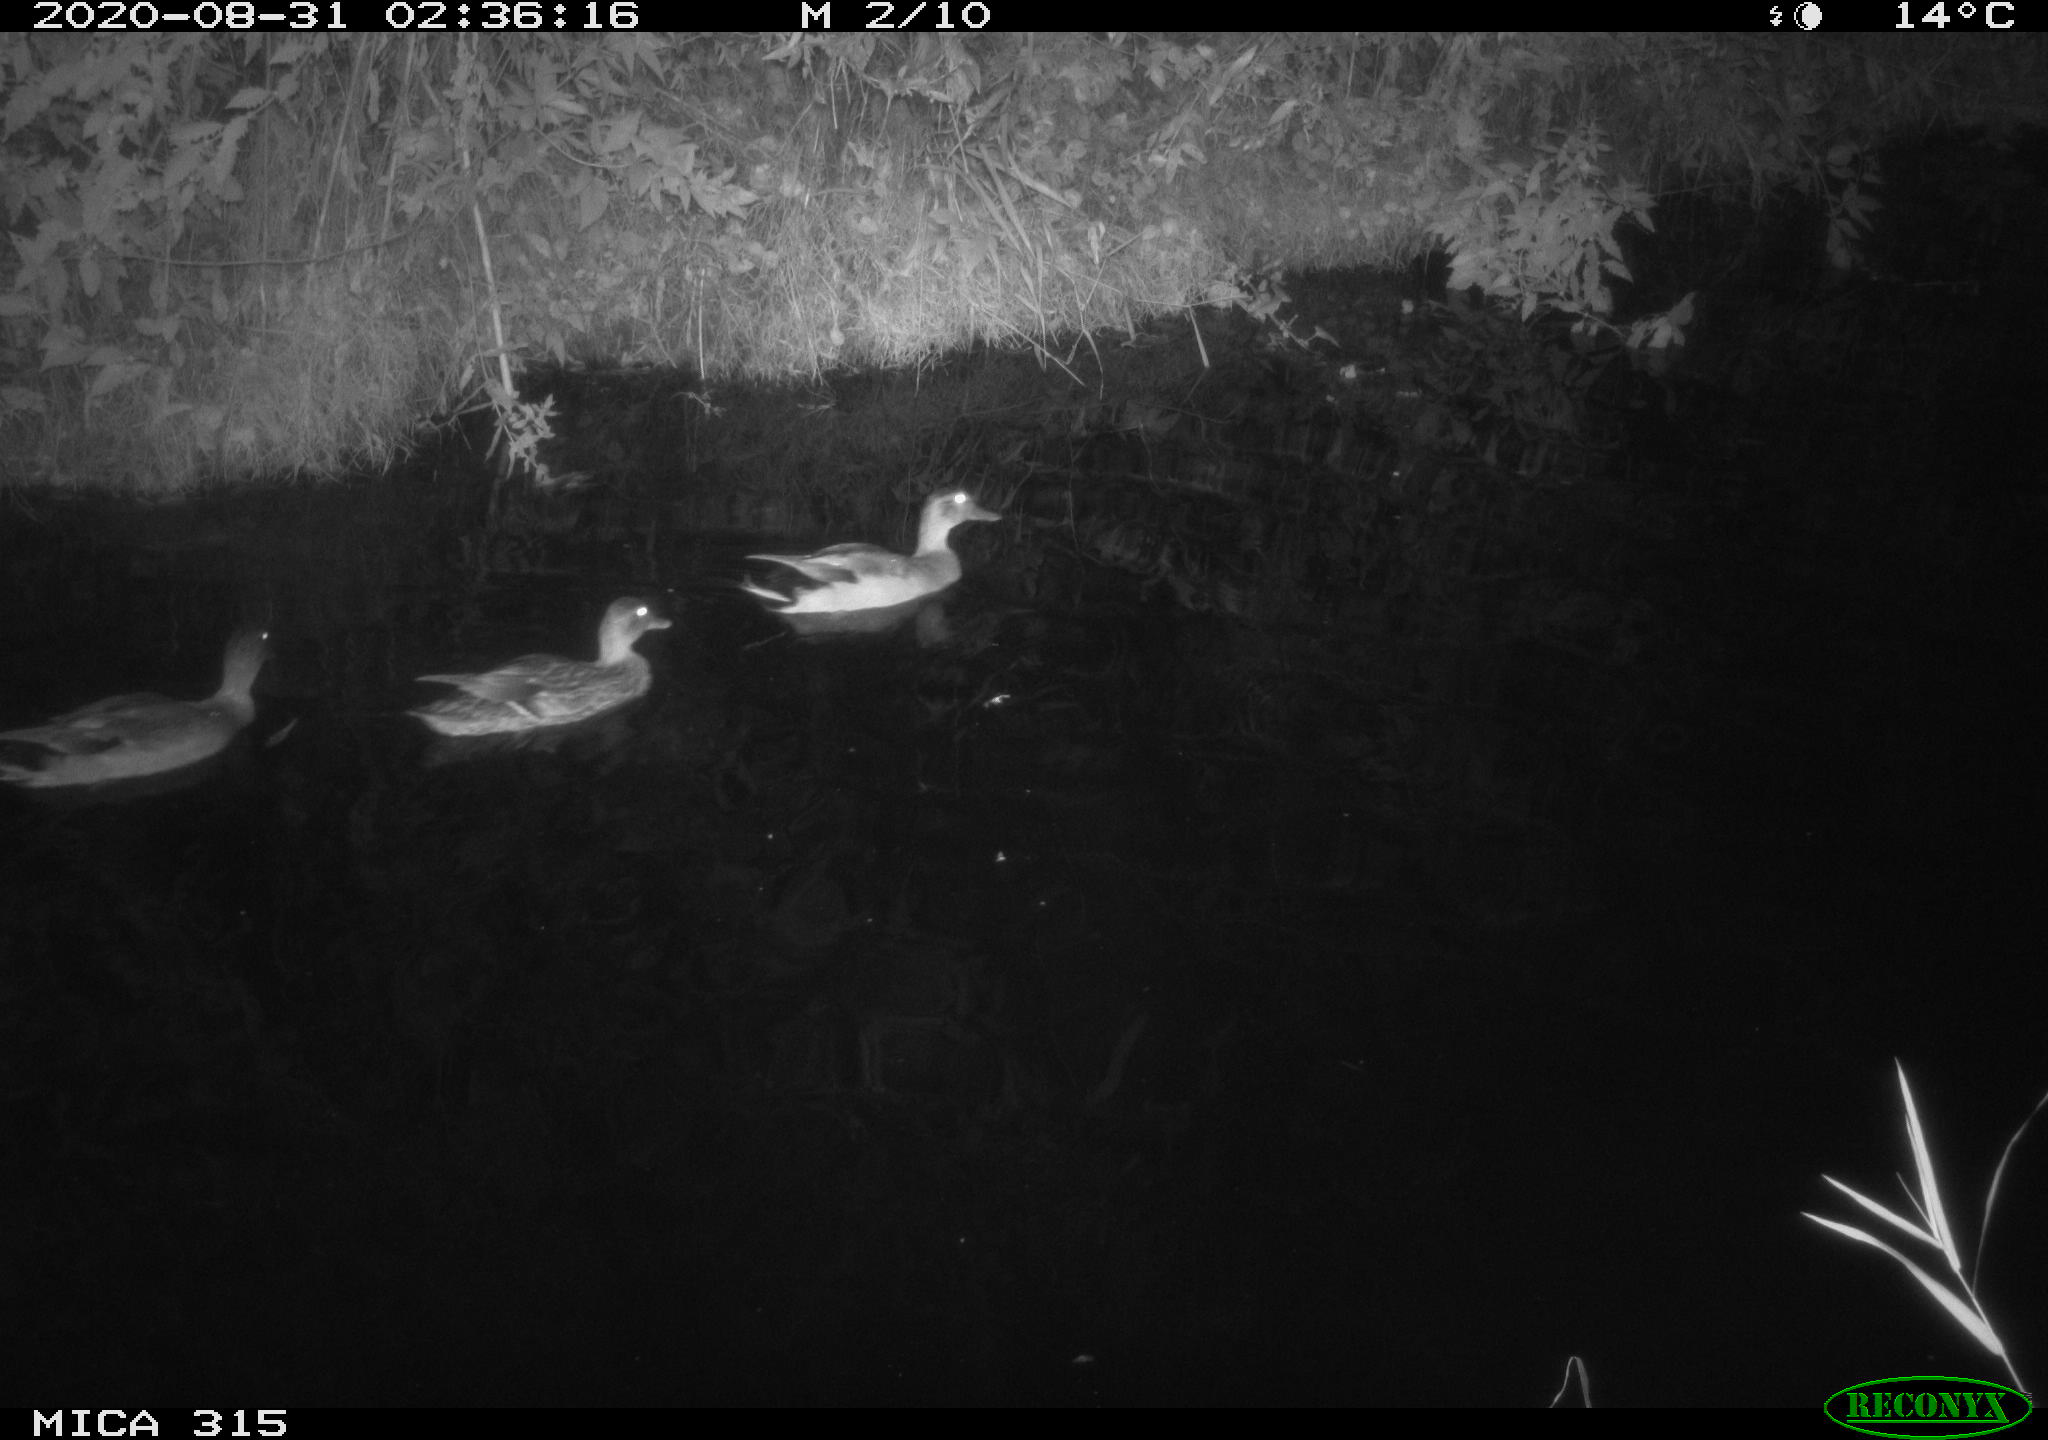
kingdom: Animalia
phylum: Chordata
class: Aves
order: Anseriformes
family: Anatidae
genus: Anas
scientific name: Anas platyrhynchos
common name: Mallard
